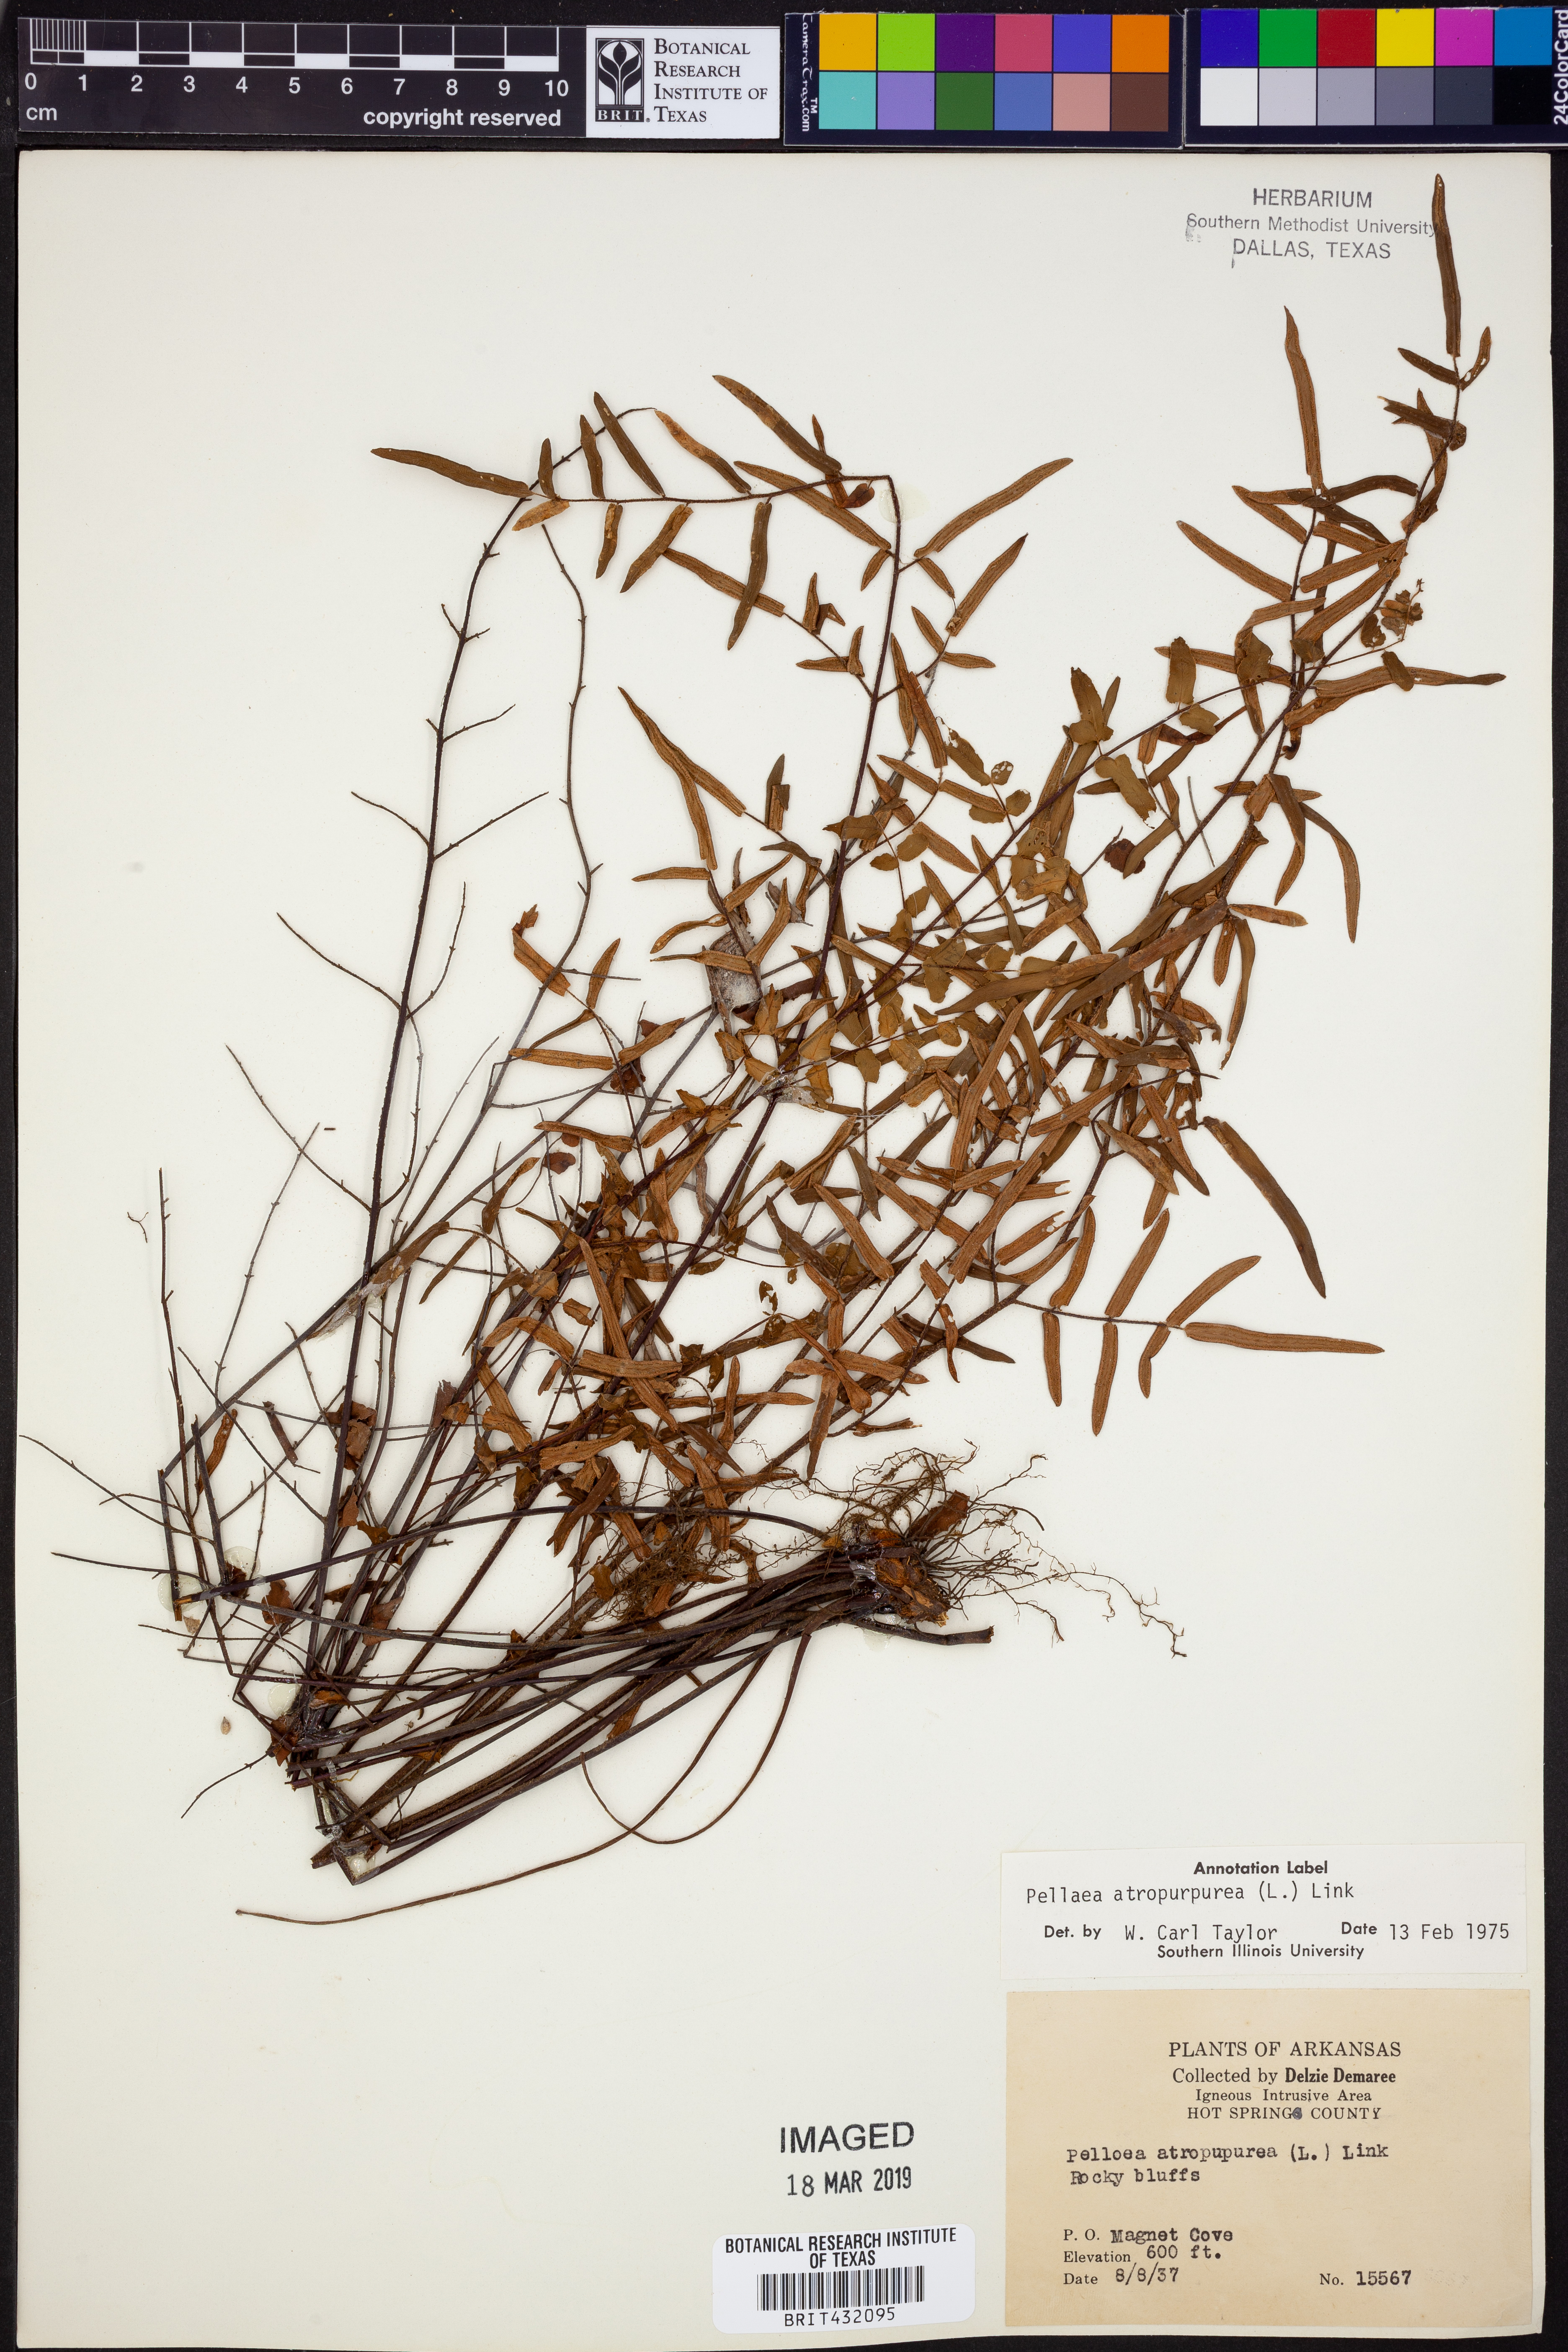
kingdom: Plantae
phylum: Tracheophyta
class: Polypodiopsida
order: Polypodiales
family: Pteridaceae
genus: Pellaea
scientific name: Pellaea atropurpurea
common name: Hairy cliffbrake
